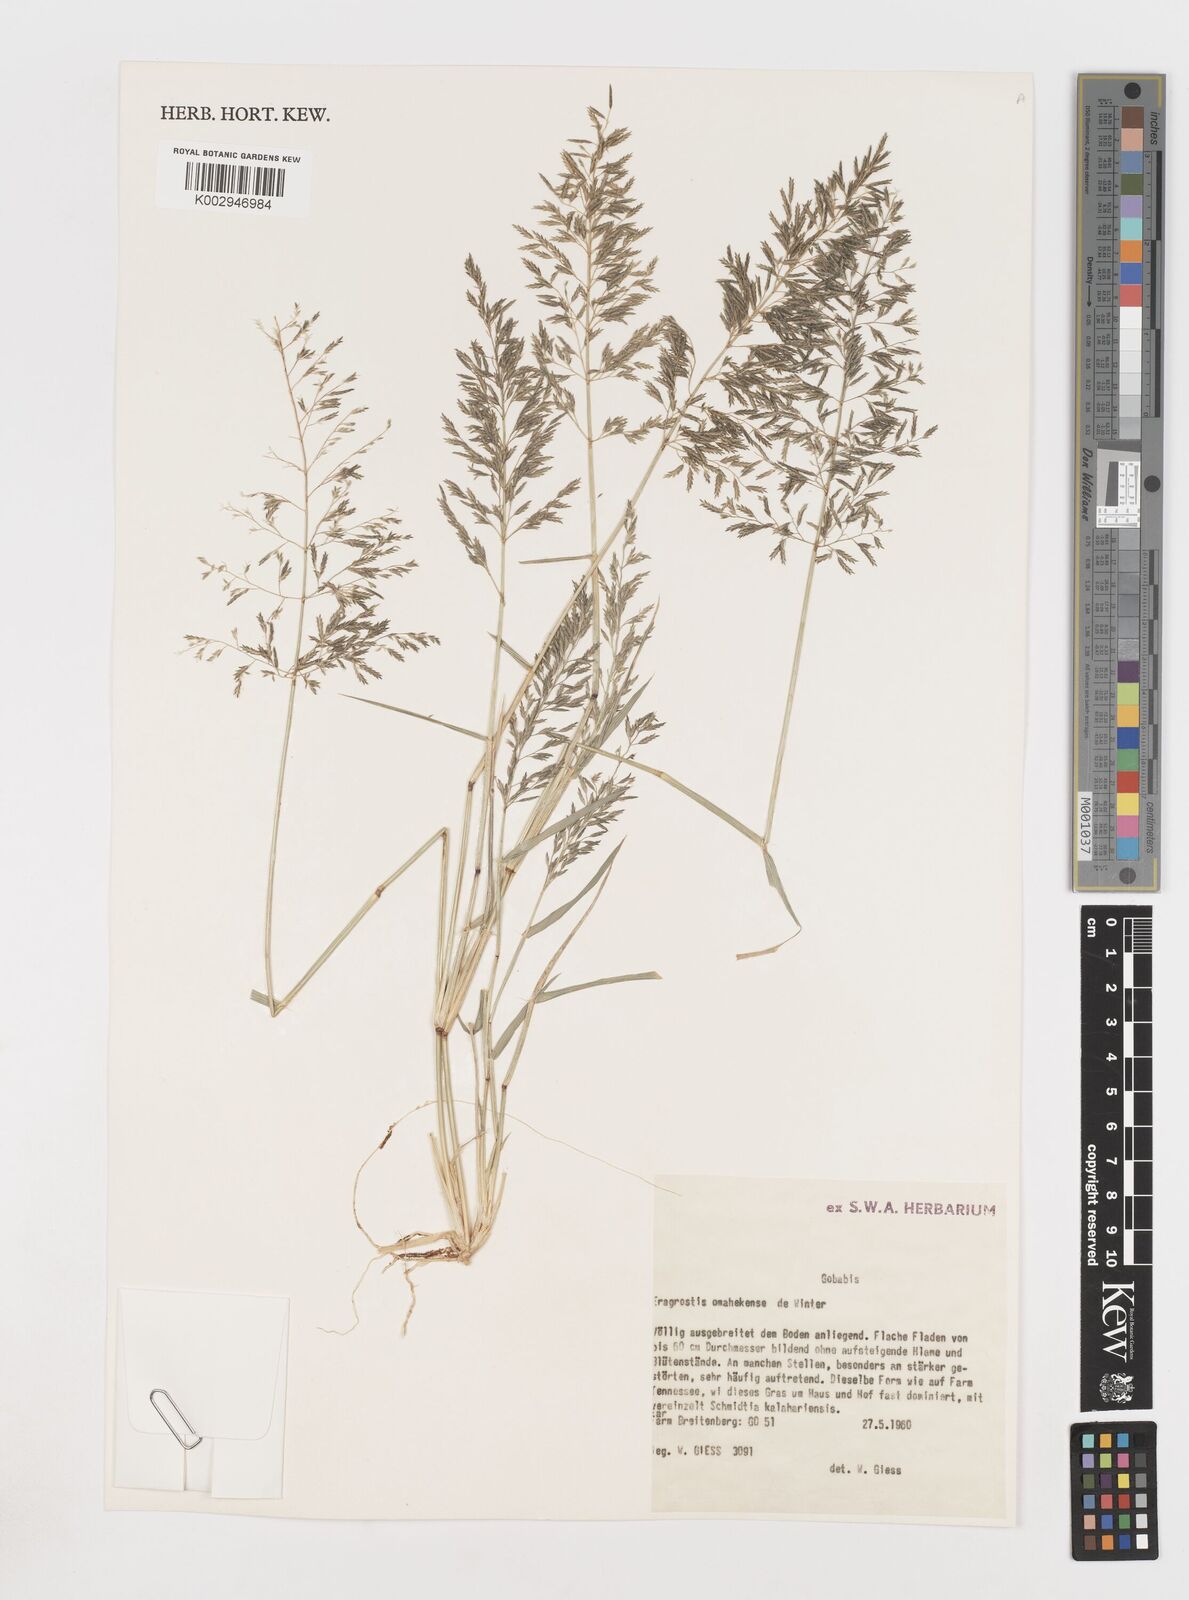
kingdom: Plantae
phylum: Tracheophyta
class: Liliopsida
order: Poales
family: Poaceae
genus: Eragrostis
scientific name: Eragrostis omahekensis
